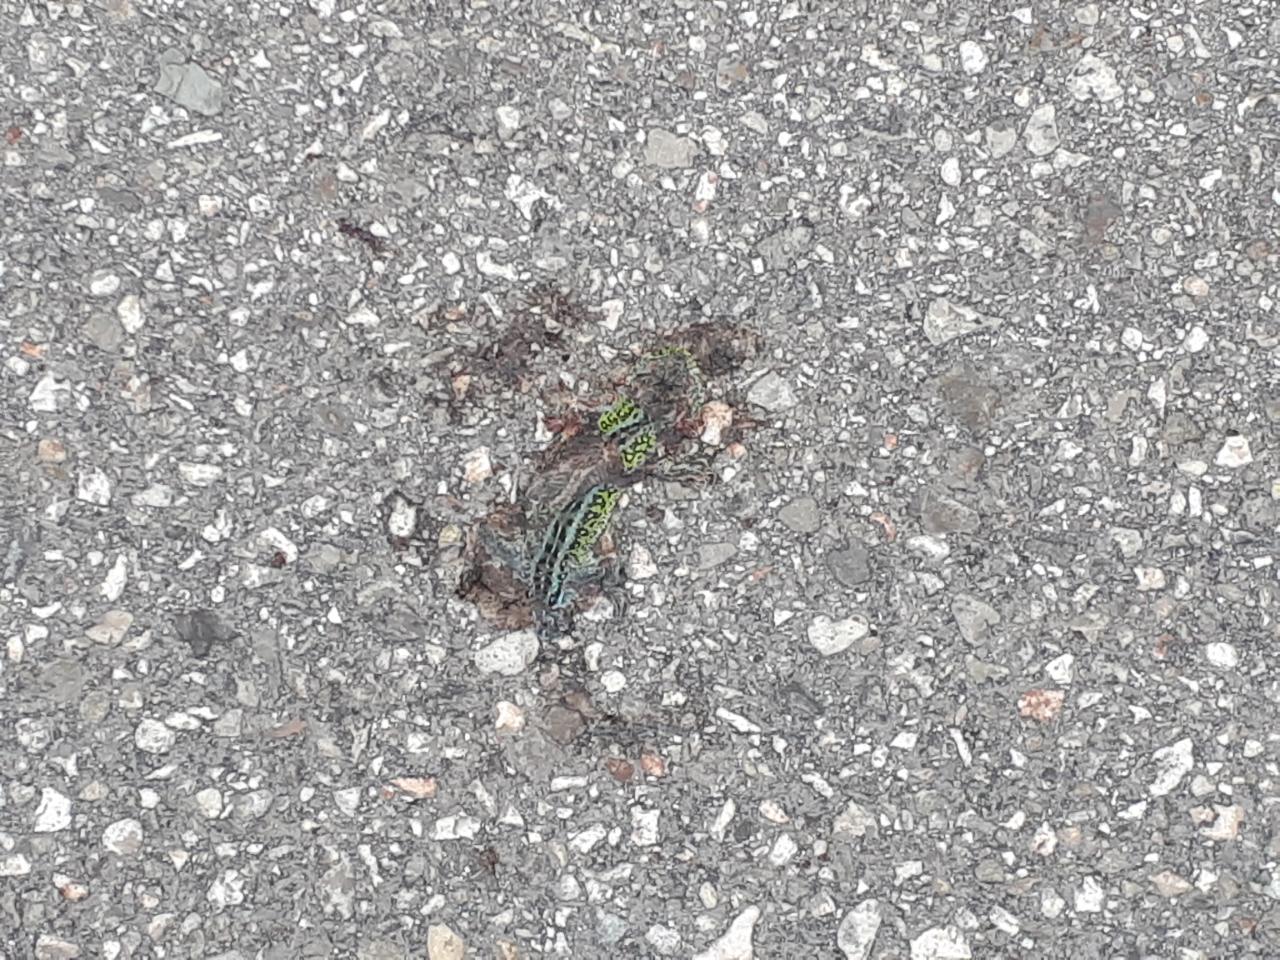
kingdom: Animalia
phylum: Chordata
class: Squamata
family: Lacertidae
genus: Lacerta
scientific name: Lacerta agilis
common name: Sand lizard
